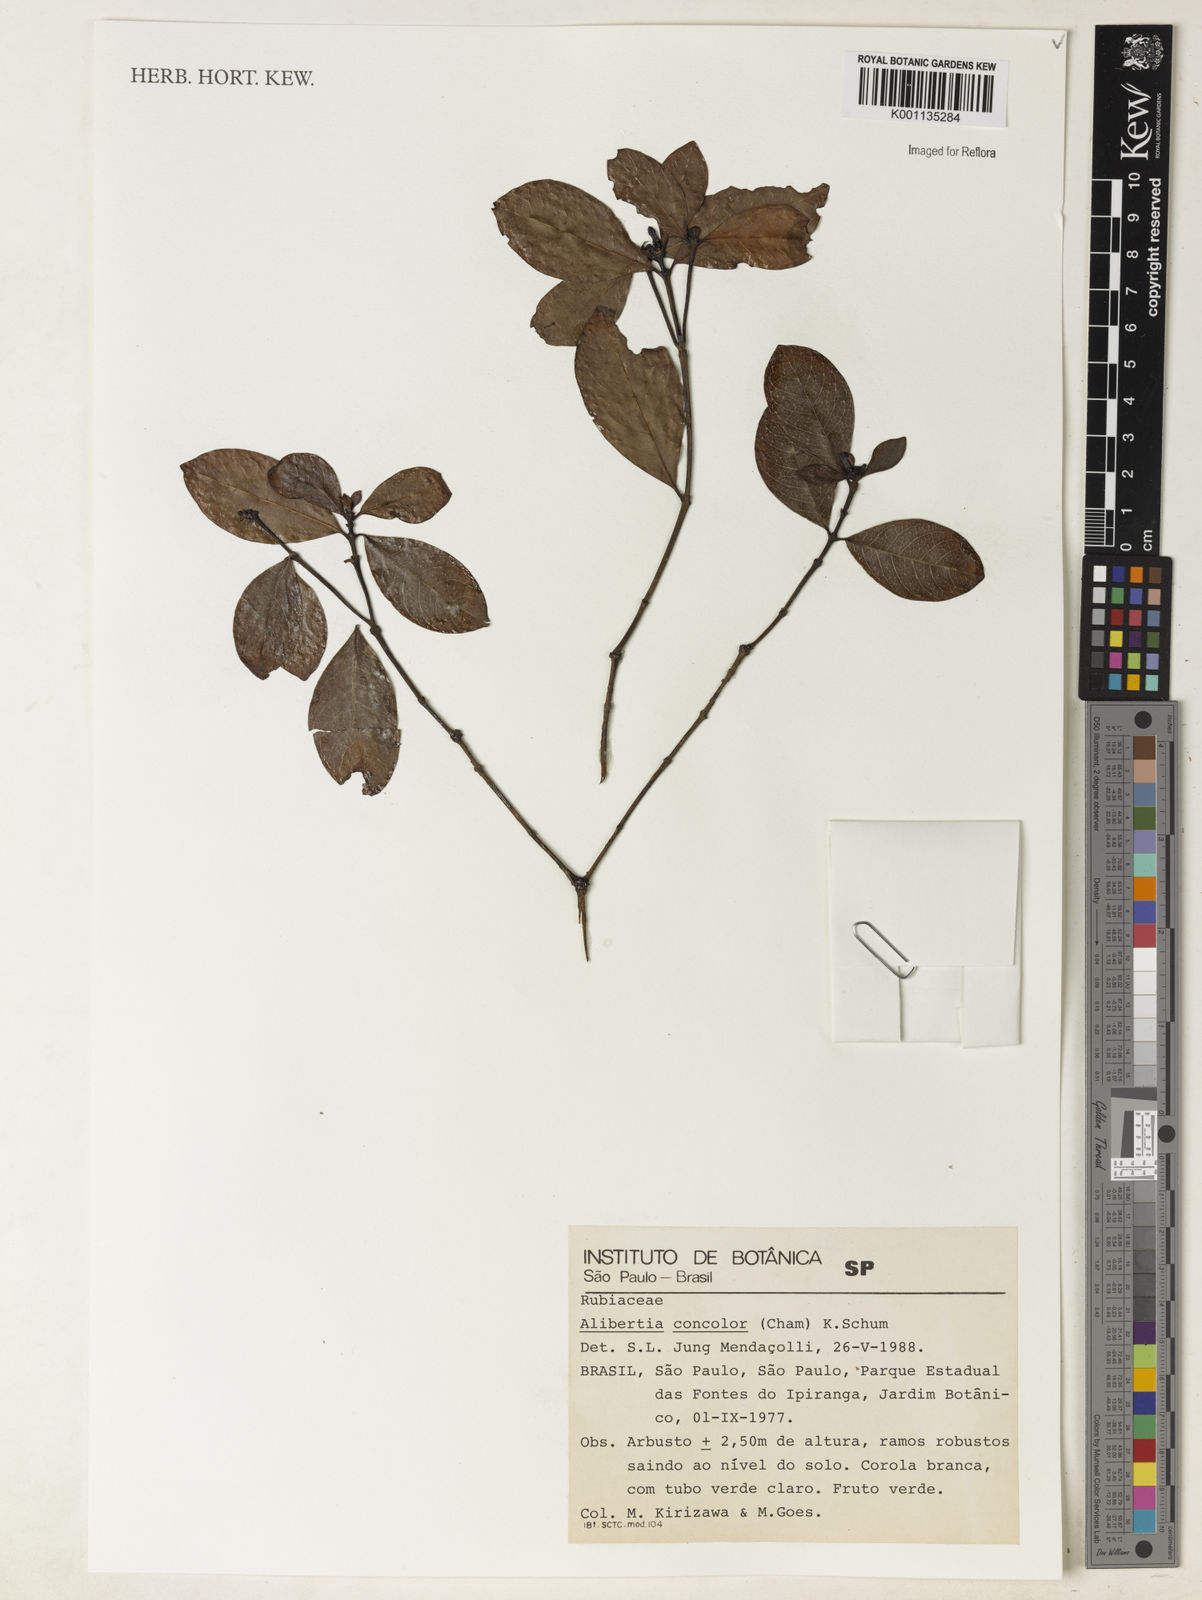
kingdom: Plantae
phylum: Tracheophyta
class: Magnoliopsida
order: Gentianales
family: Rubiaceae
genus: Cordiera
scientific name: Cordiera concolor
